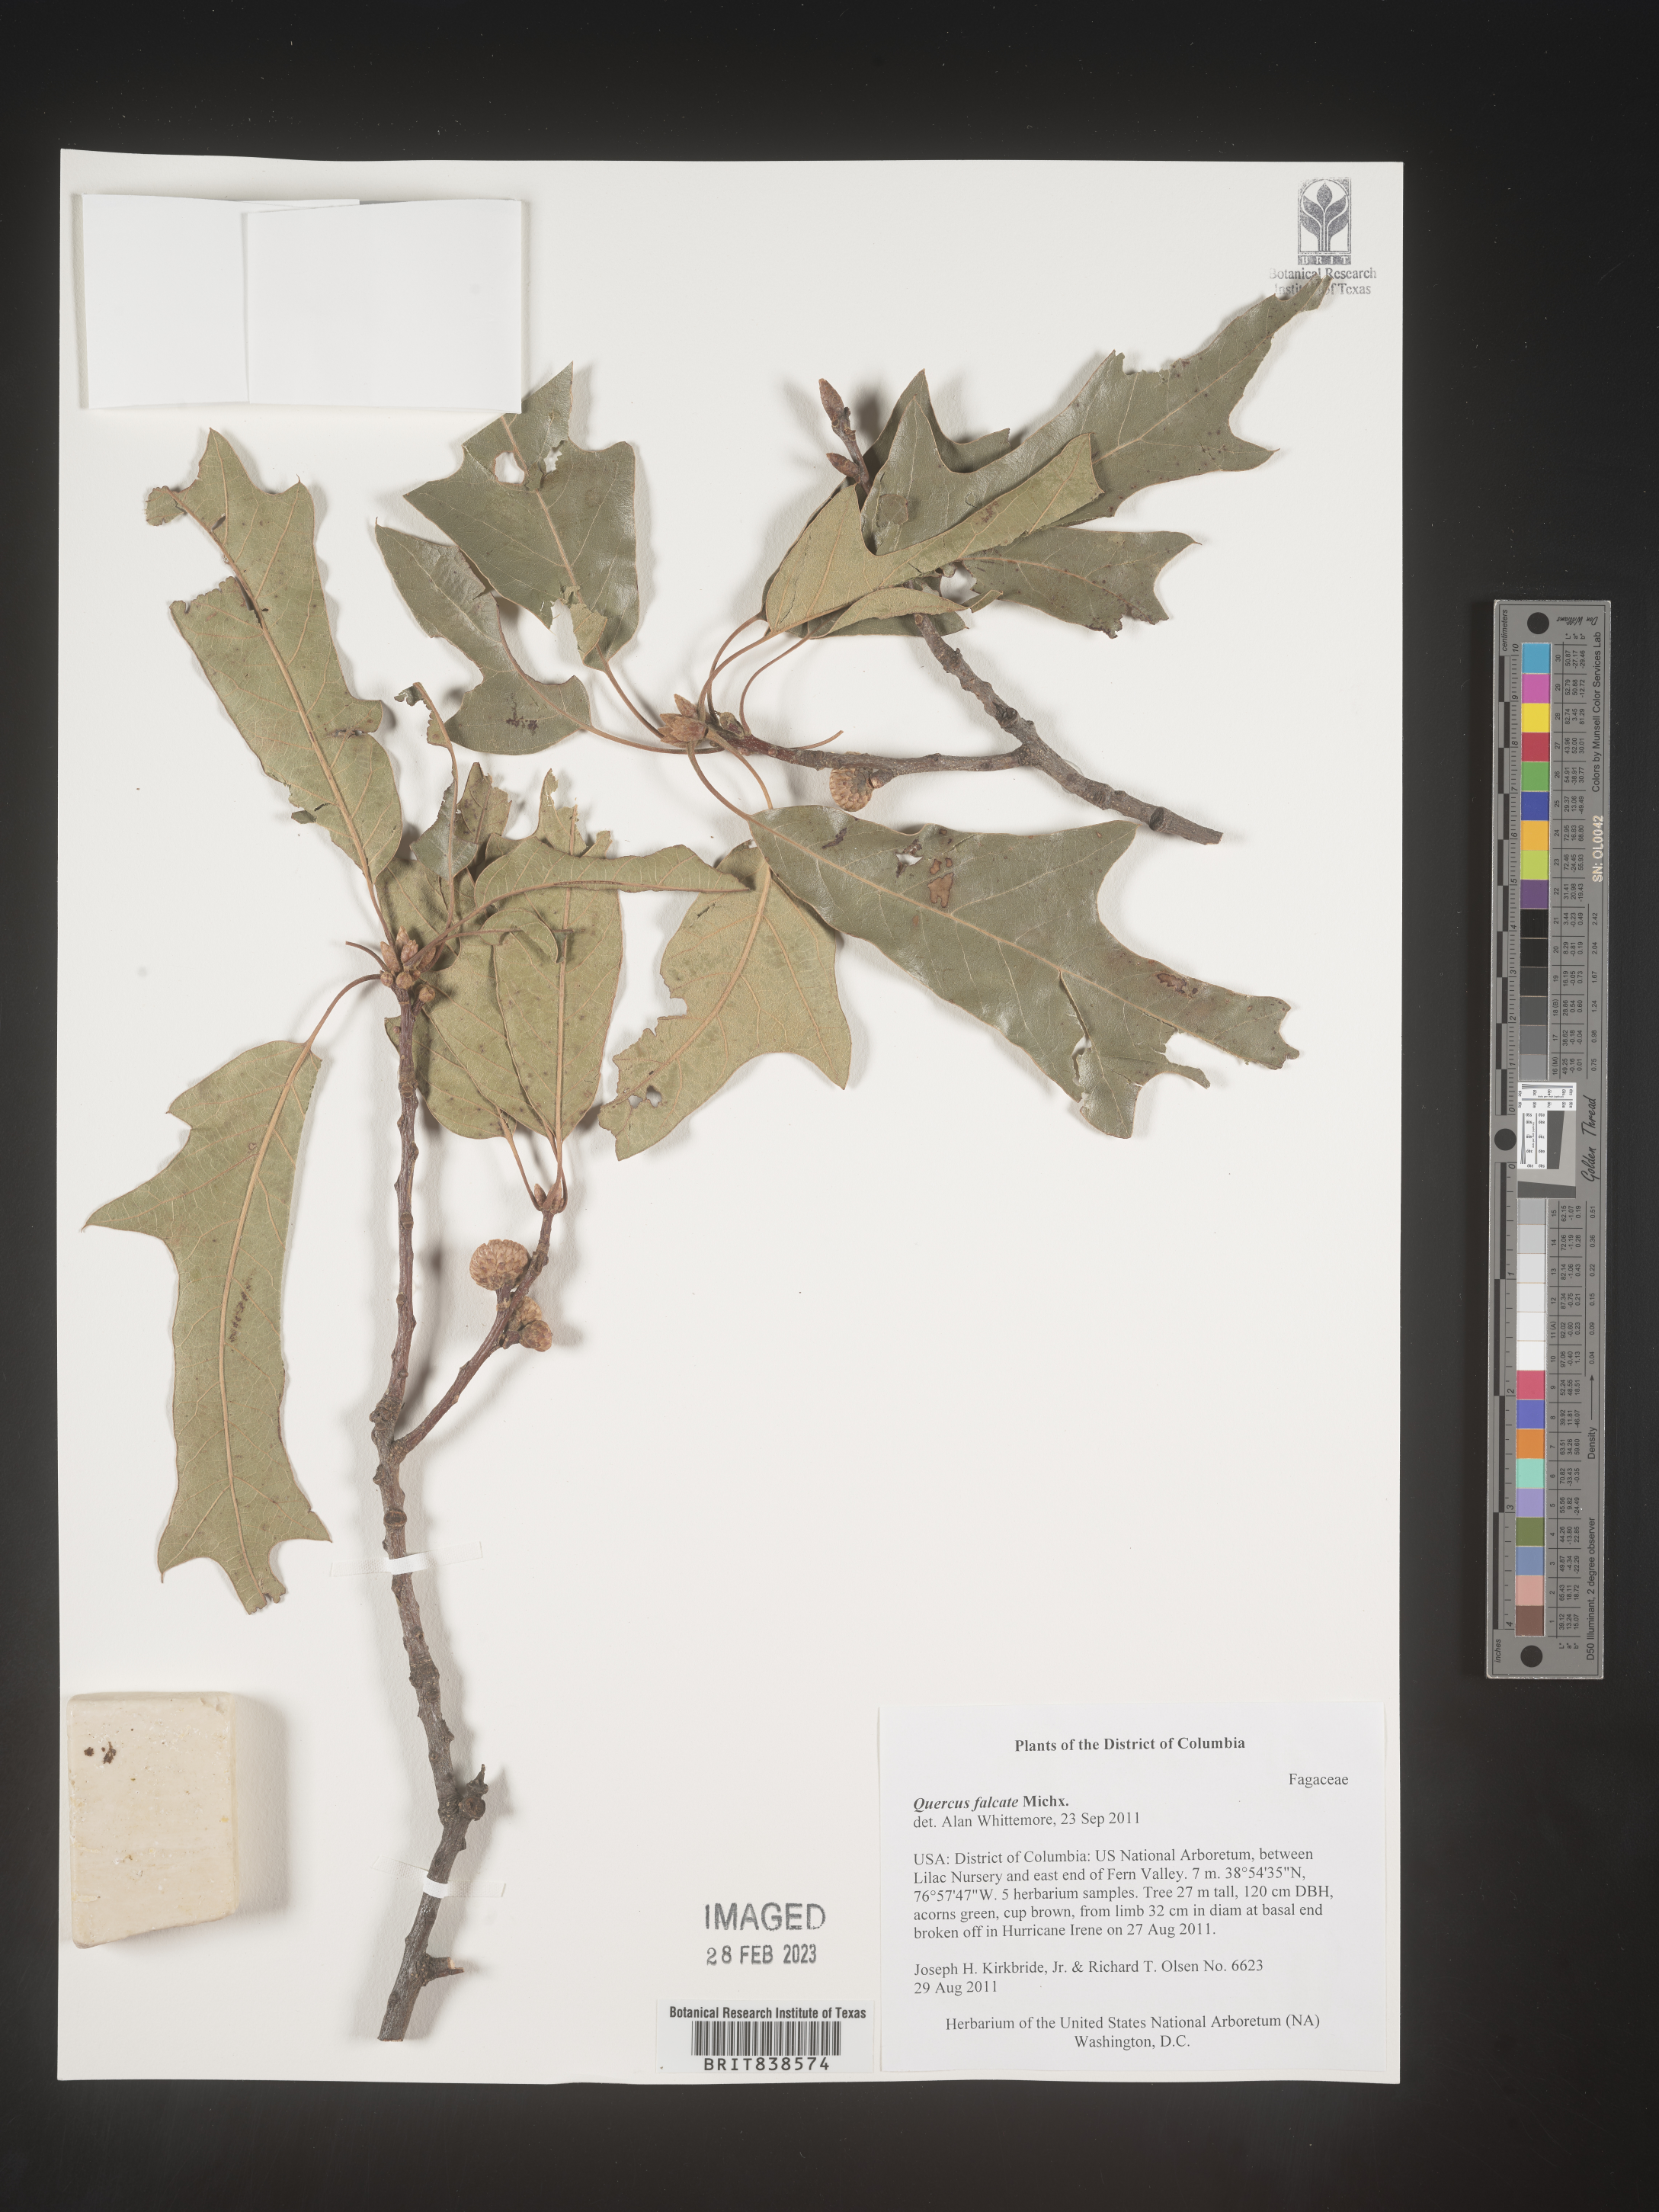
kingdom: Plantae
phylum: Tracheophyta
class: Magnoliopsida
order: Fagales
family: Fagaceae
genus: Quercus
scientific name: Quercus falcata
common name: Southern red oak
